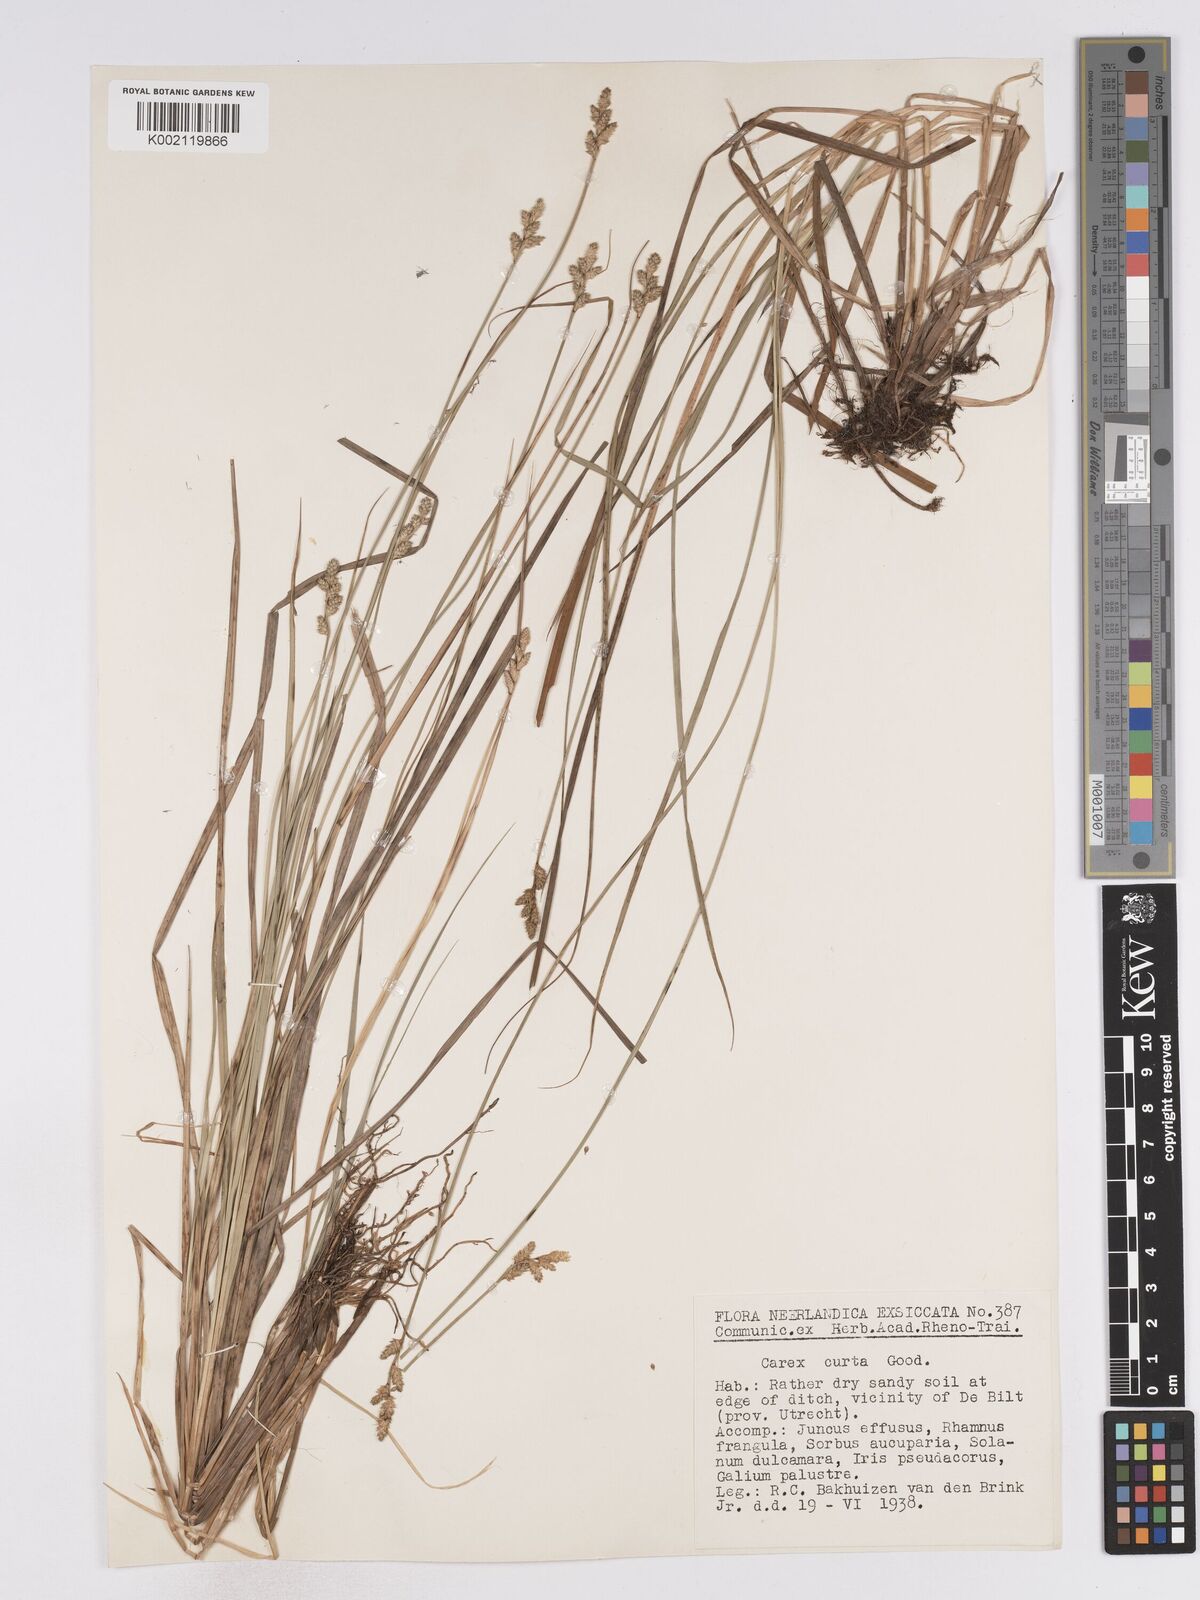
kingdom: Plantae
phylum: Tracheophyta
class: Liliopsida
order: Poales
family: Cyperaceae
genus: Carex
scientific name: Carex curta
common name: White sedge
